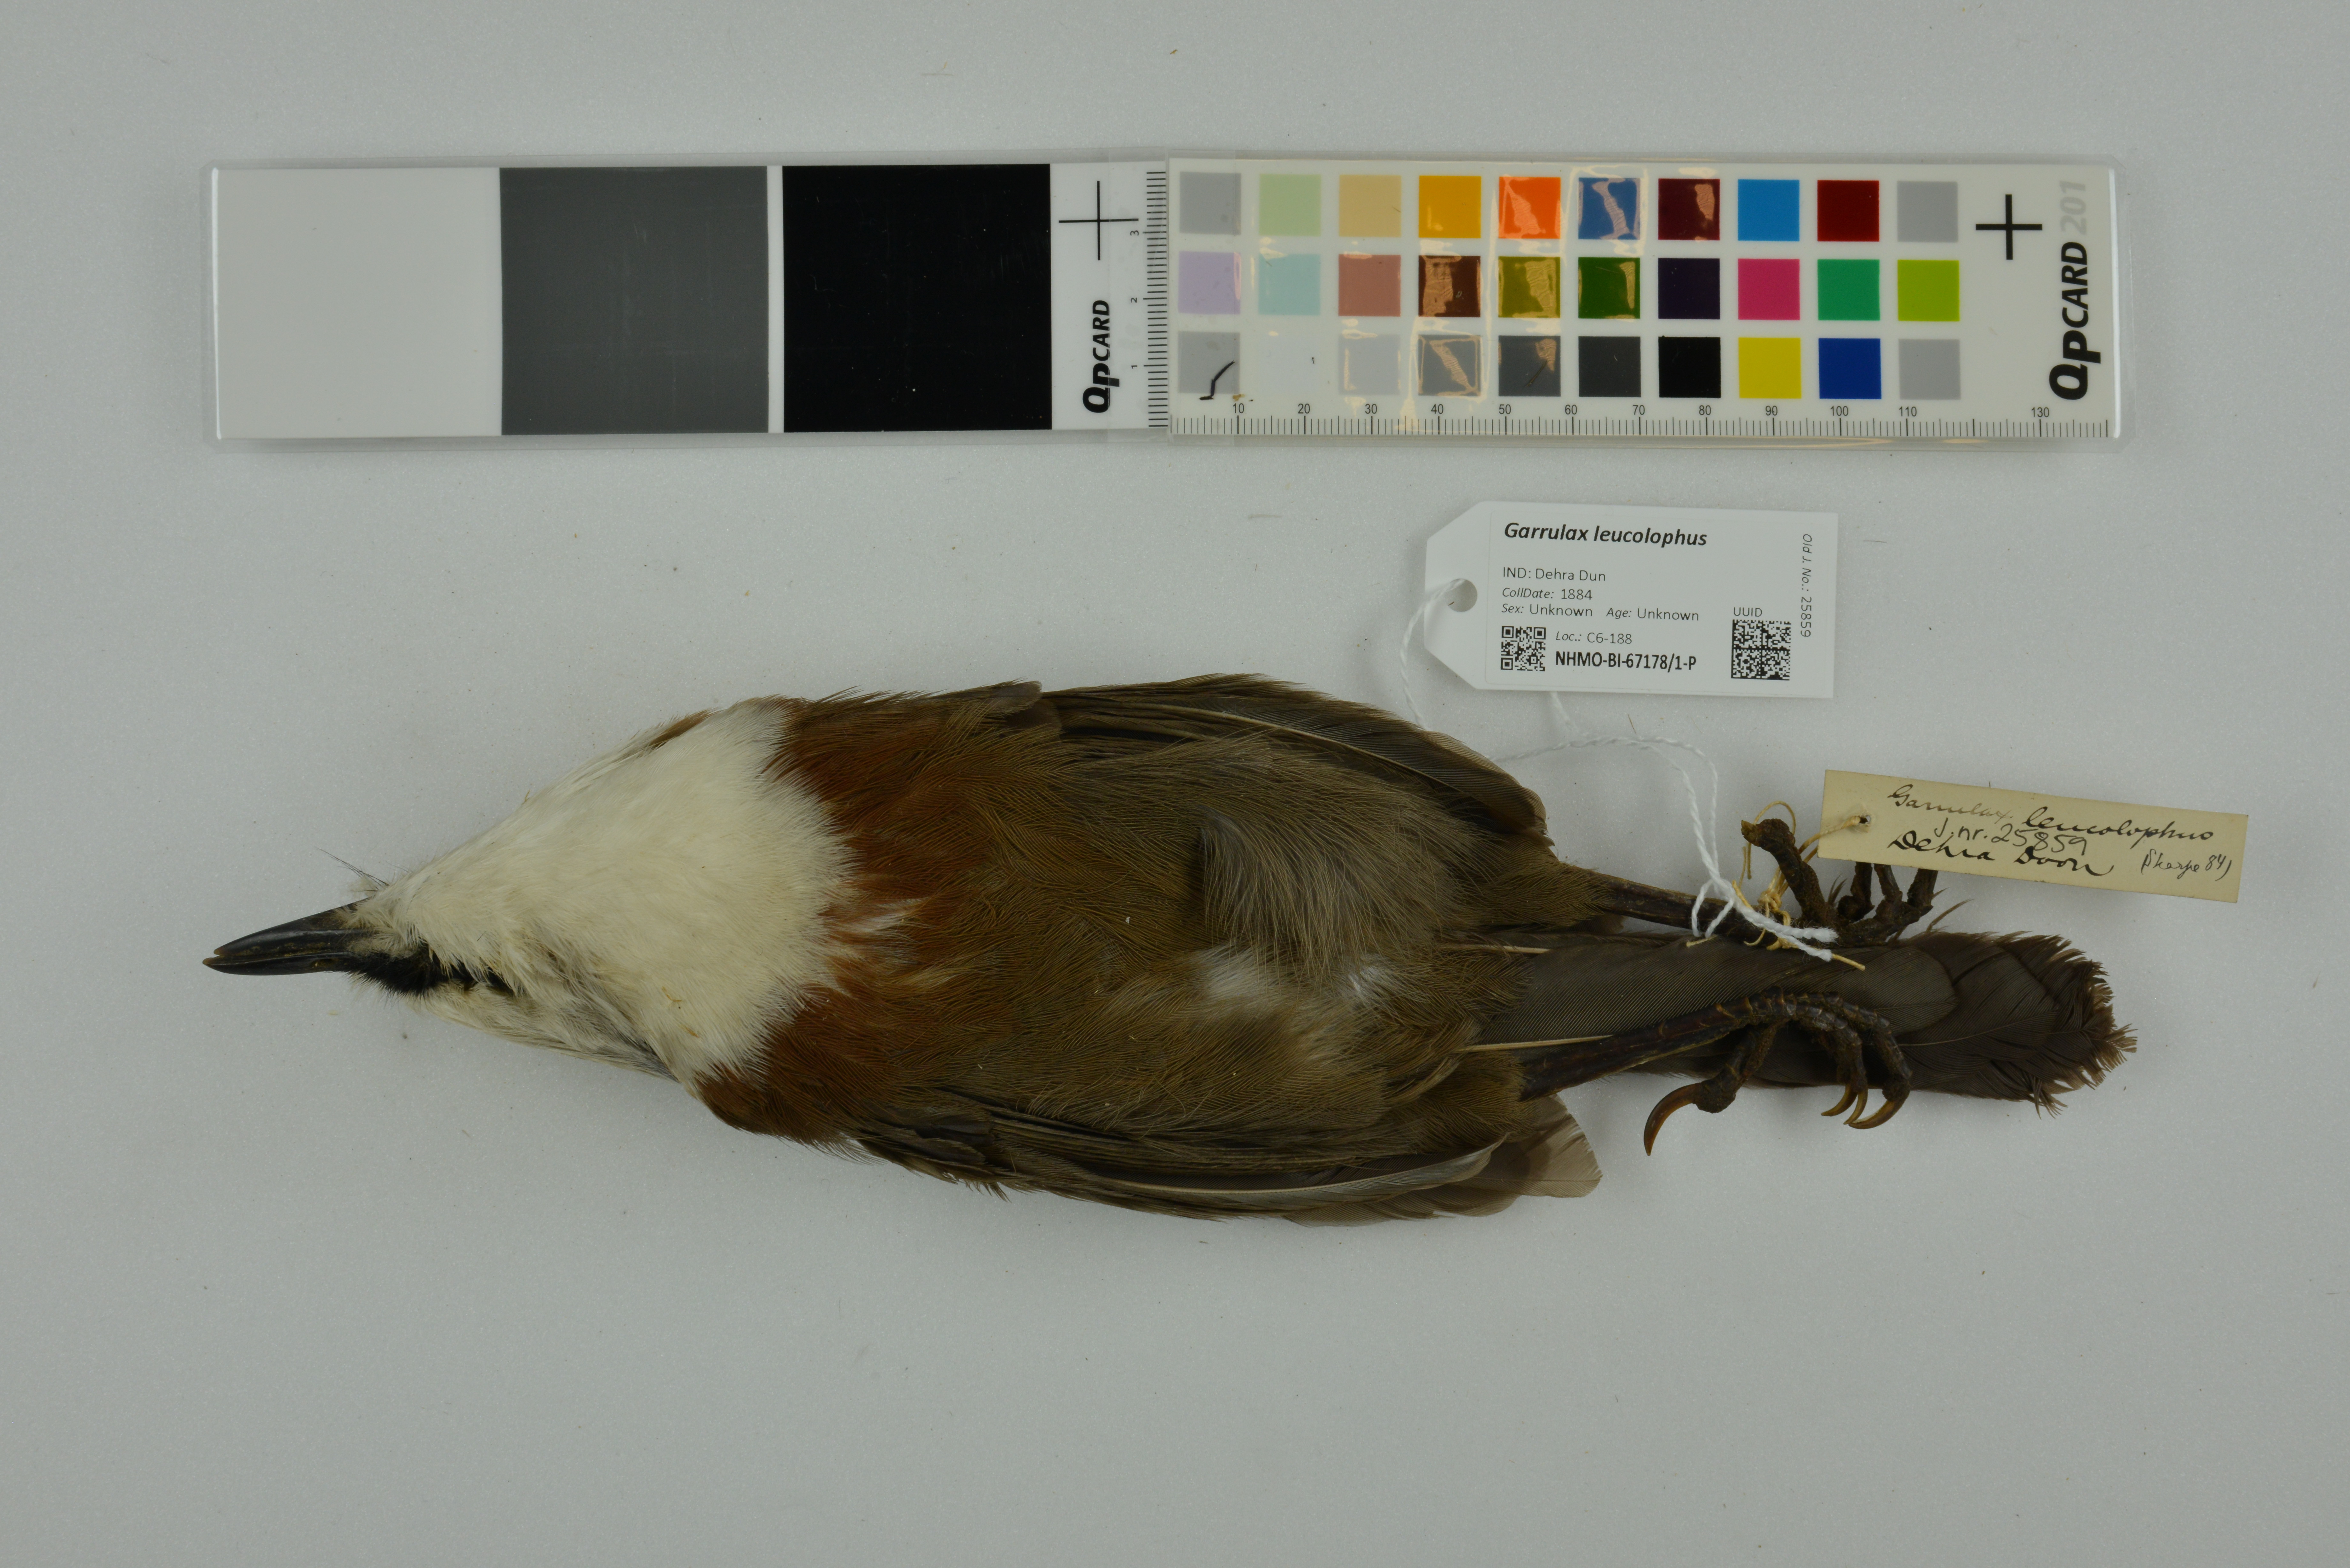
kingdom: Animalia
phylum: Chordata
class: Aves
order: Passeriformes
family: Leiothrichidae
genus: Garrulax
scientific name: Garrulax leucolophus
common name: White-crested laughingthrush
